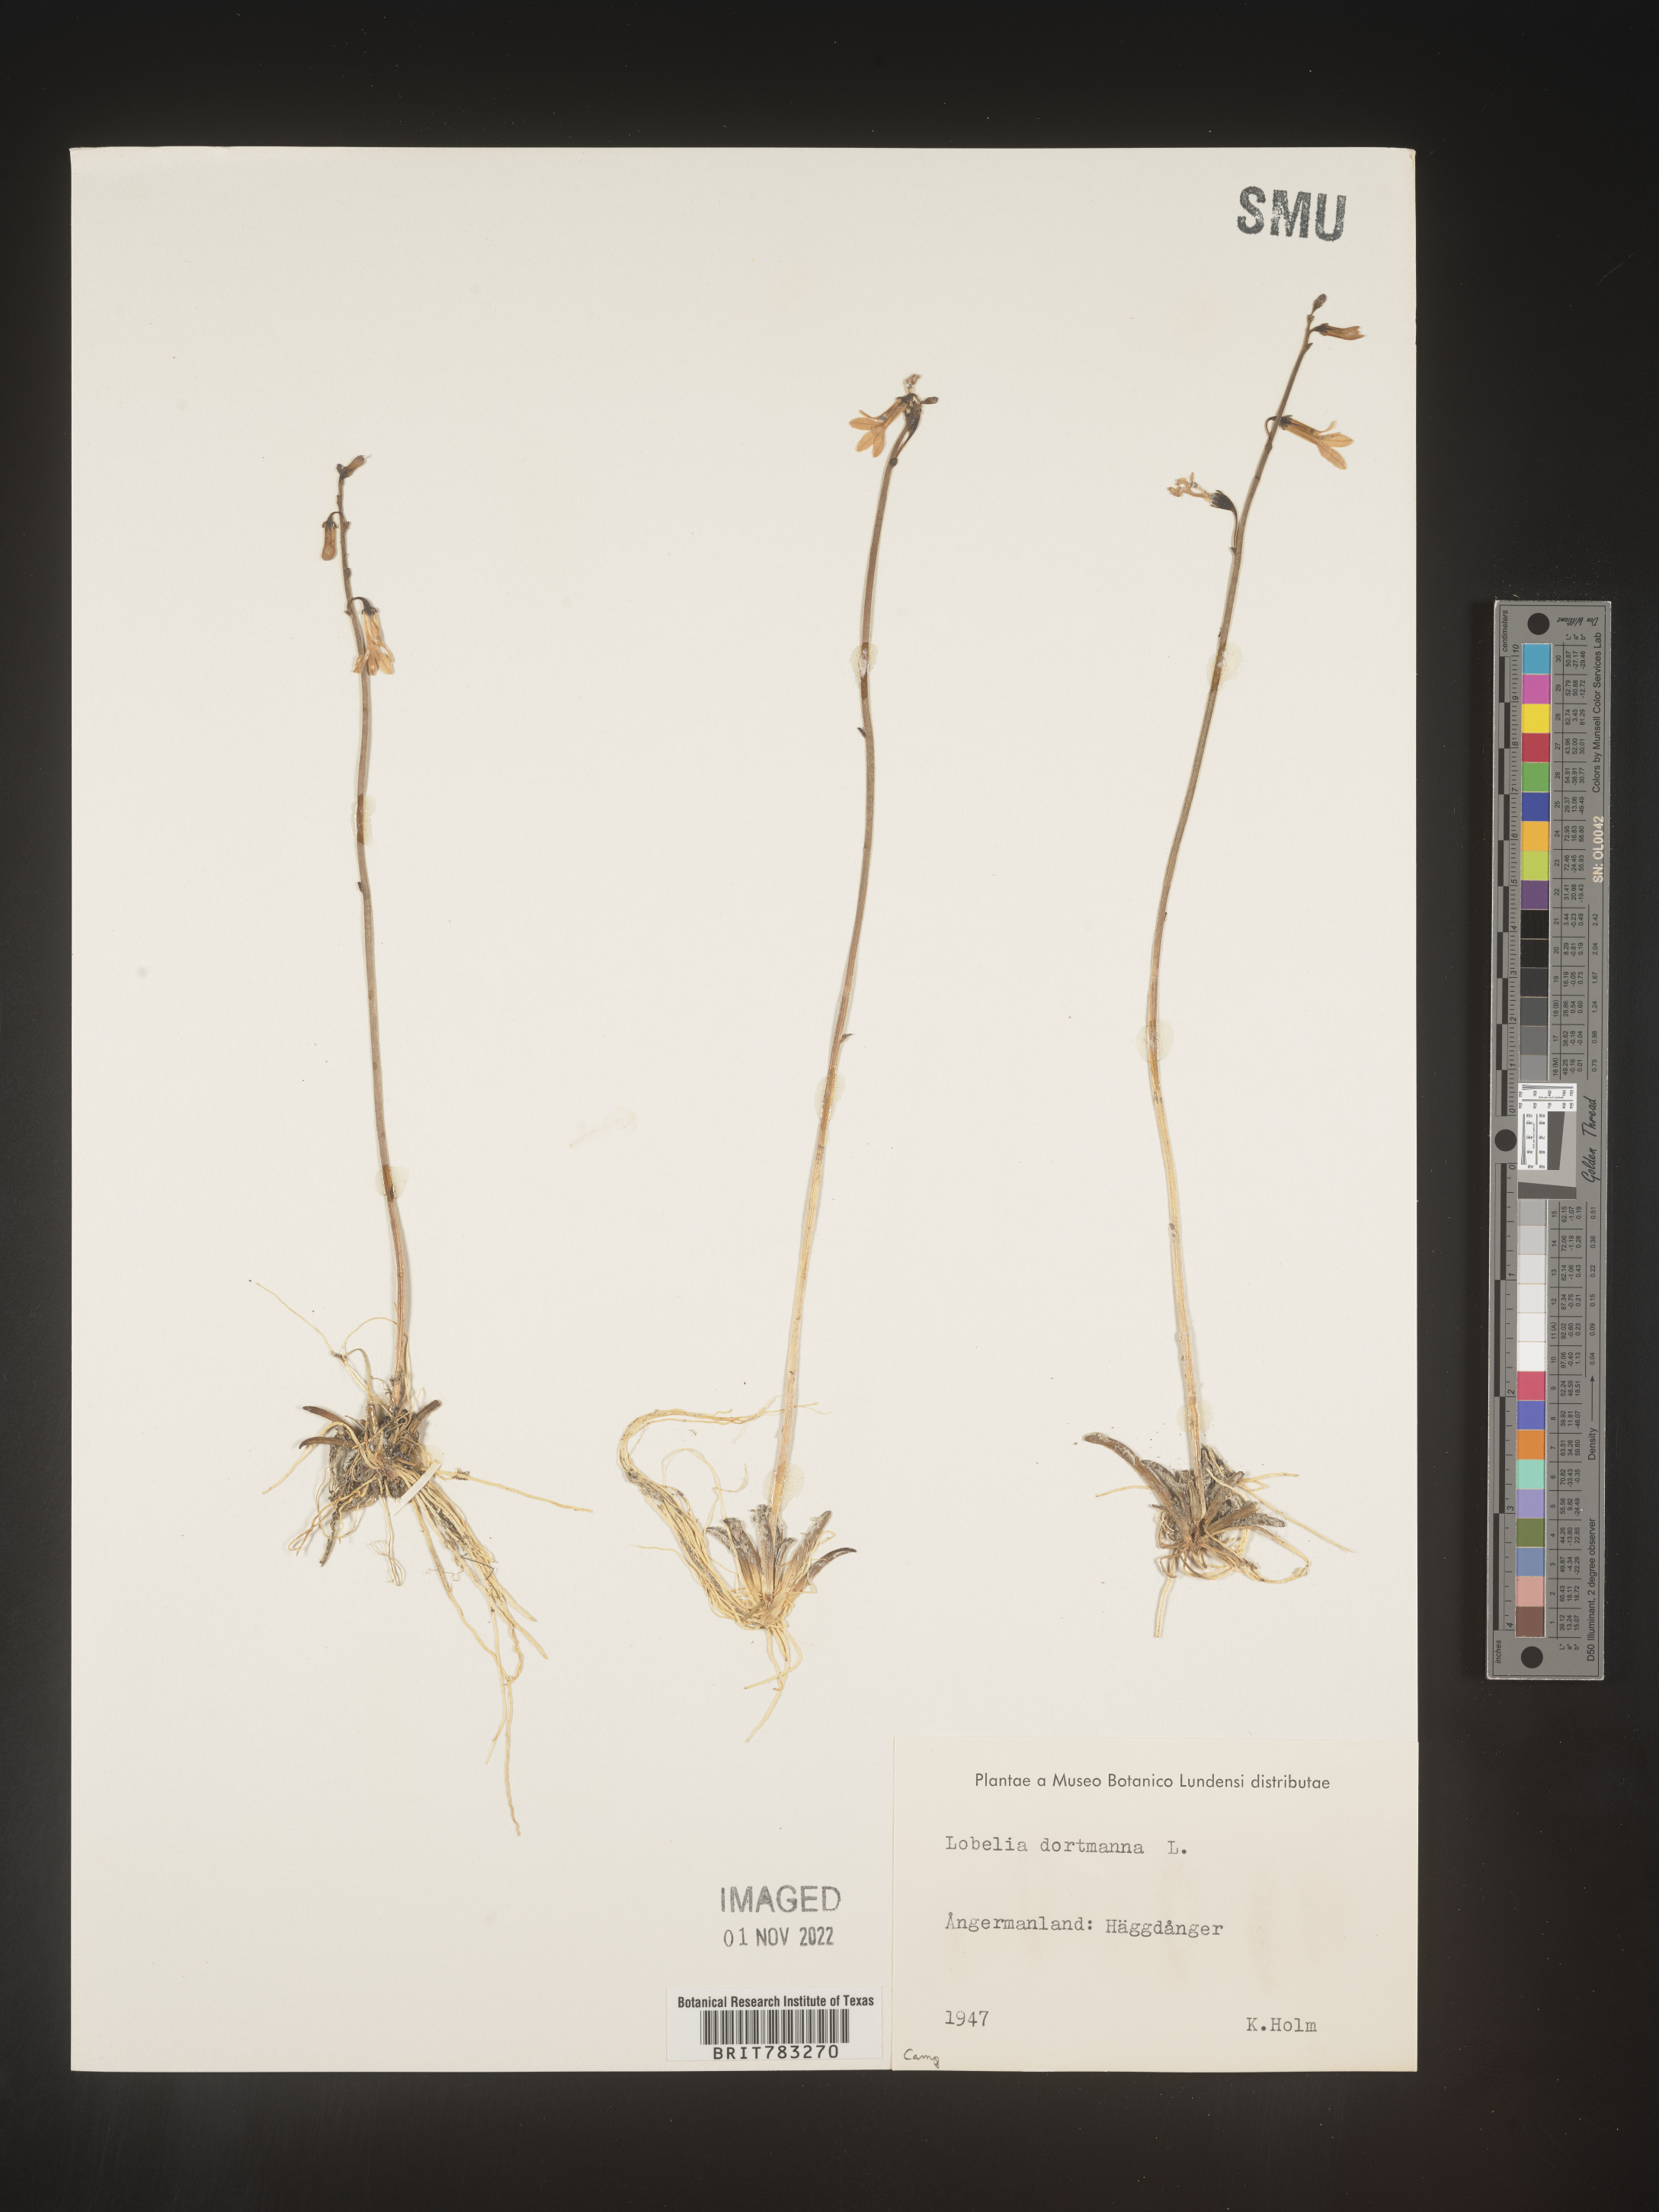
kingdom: Plantae
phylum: Tracheophyta
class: Magnoliopsida
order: Asterales
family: Campanulaceae
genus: Lobelia
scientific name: Lobelia
